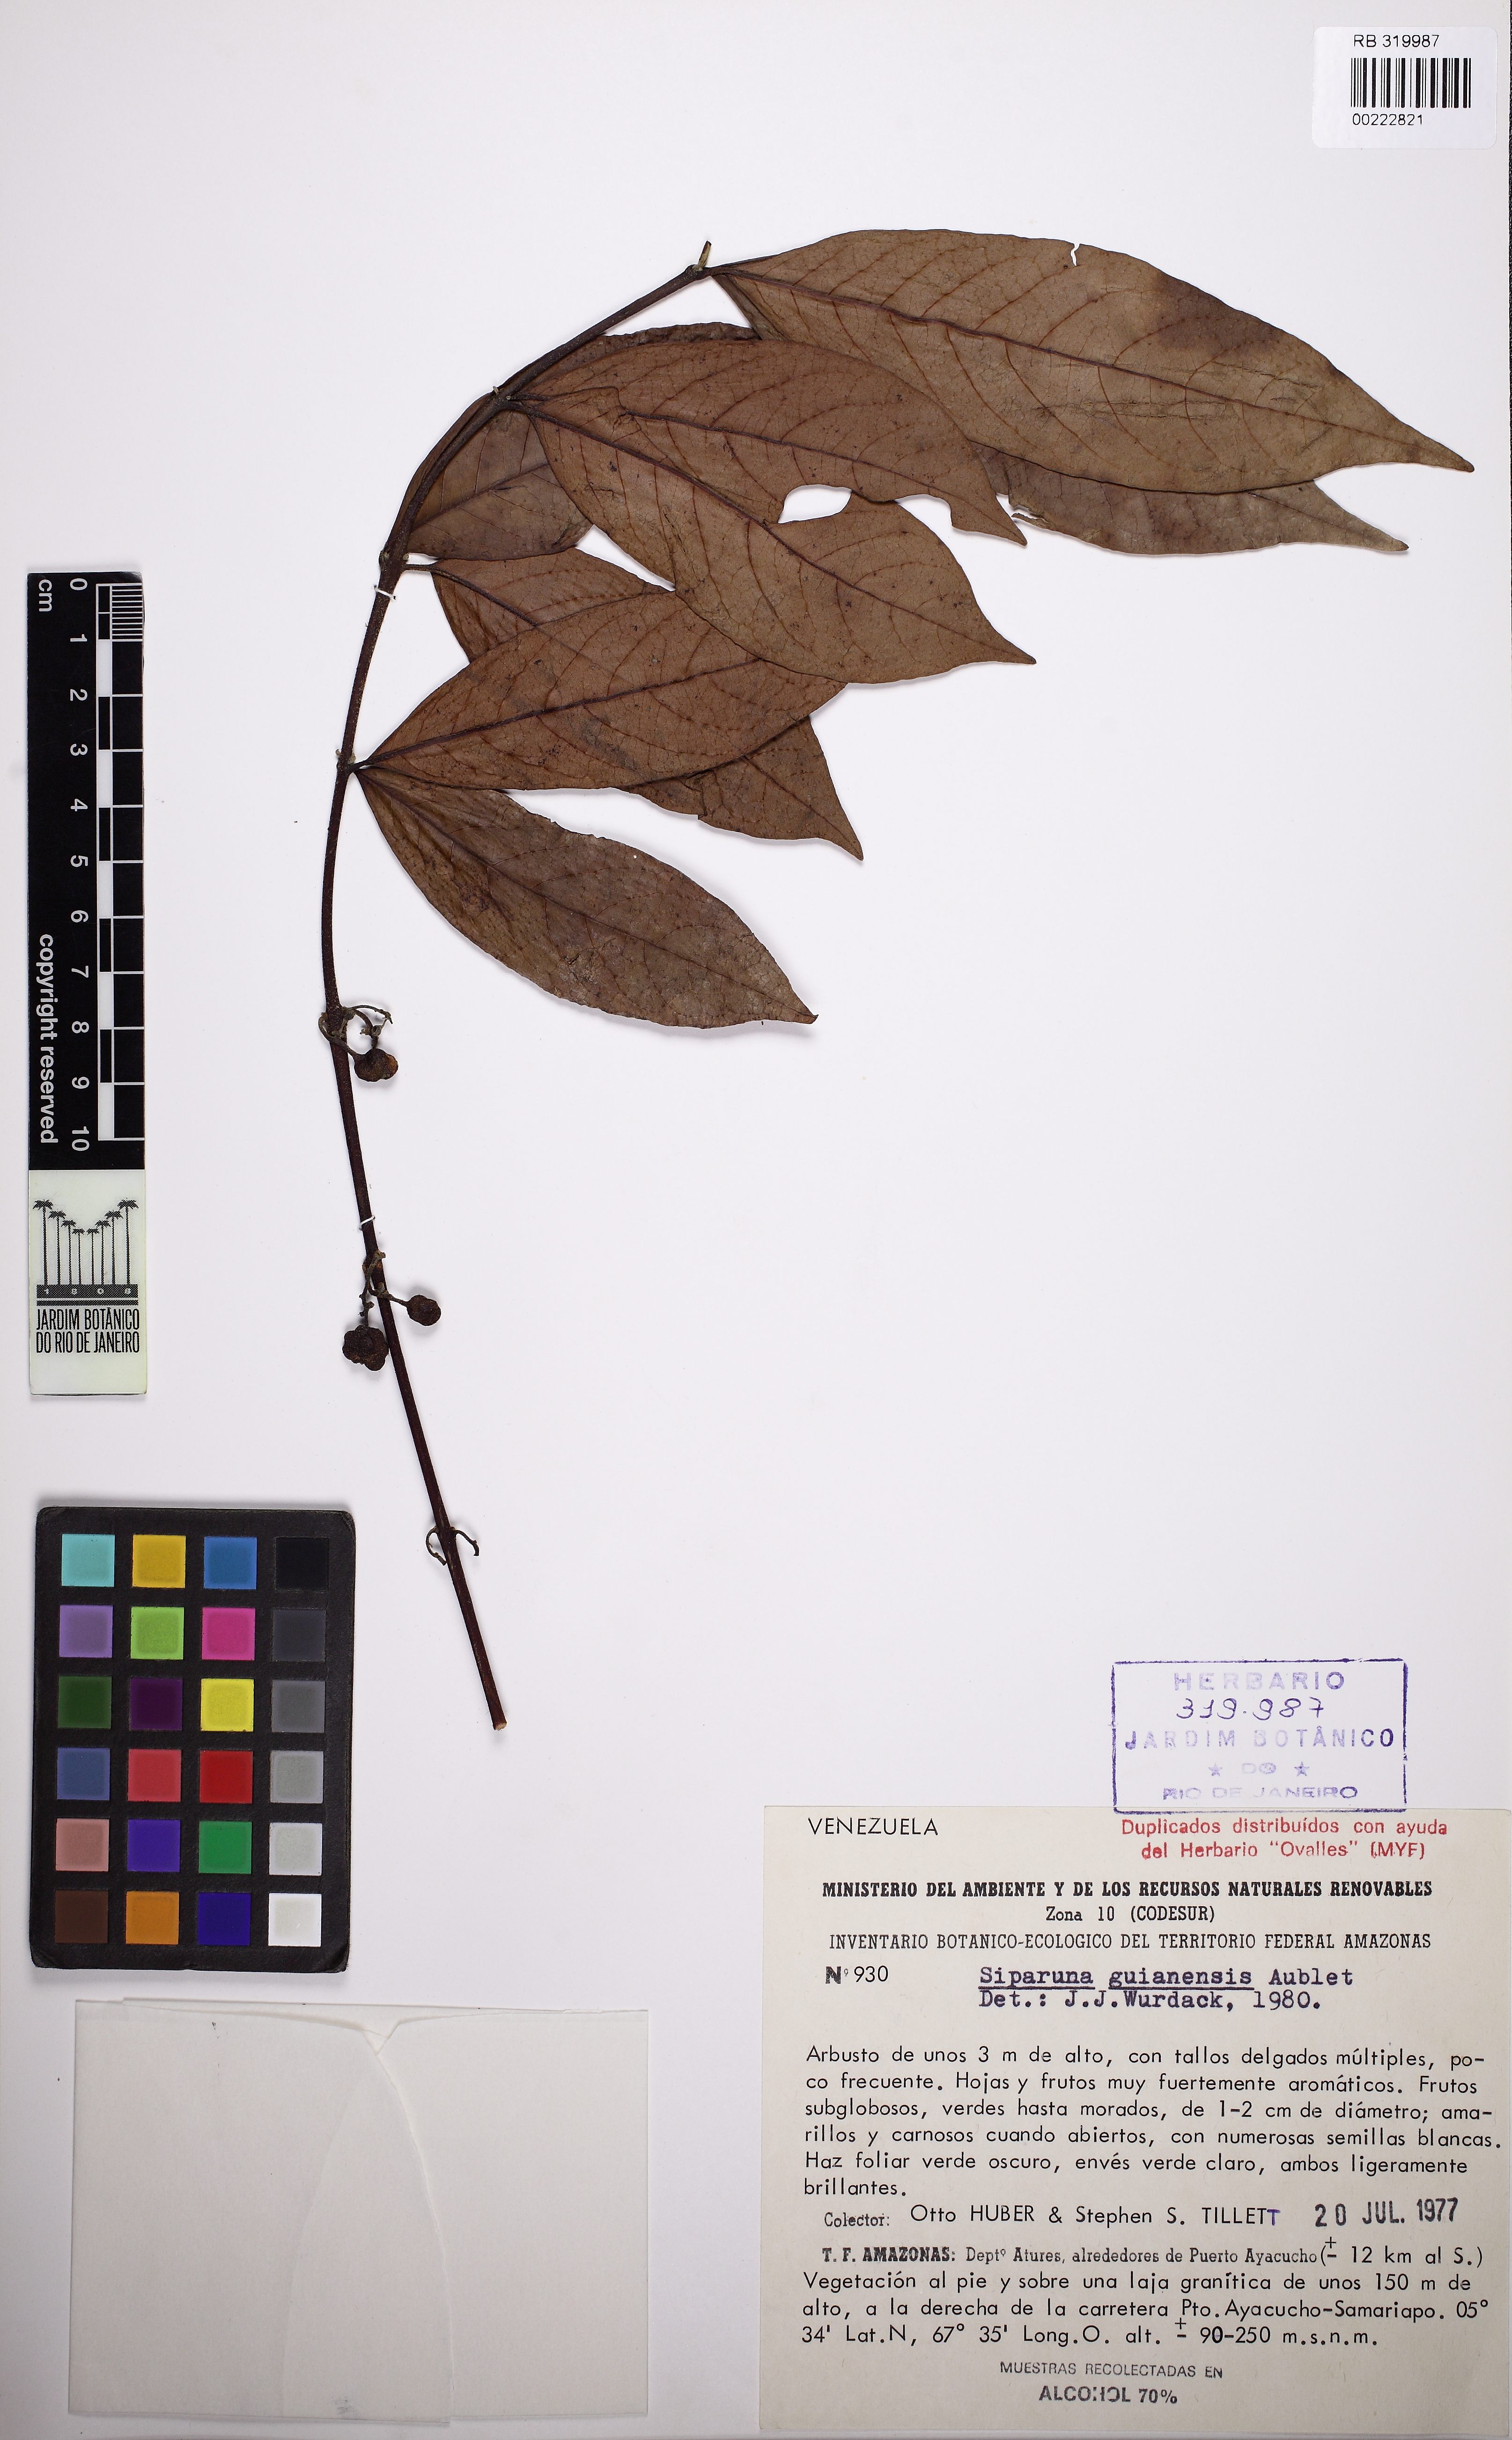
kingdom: Plantae
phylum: Tracheophyta
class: Magnoliopsida
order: Laurales
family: Siparunaceae
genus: Siparuna
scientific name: Siparuna guianensis
